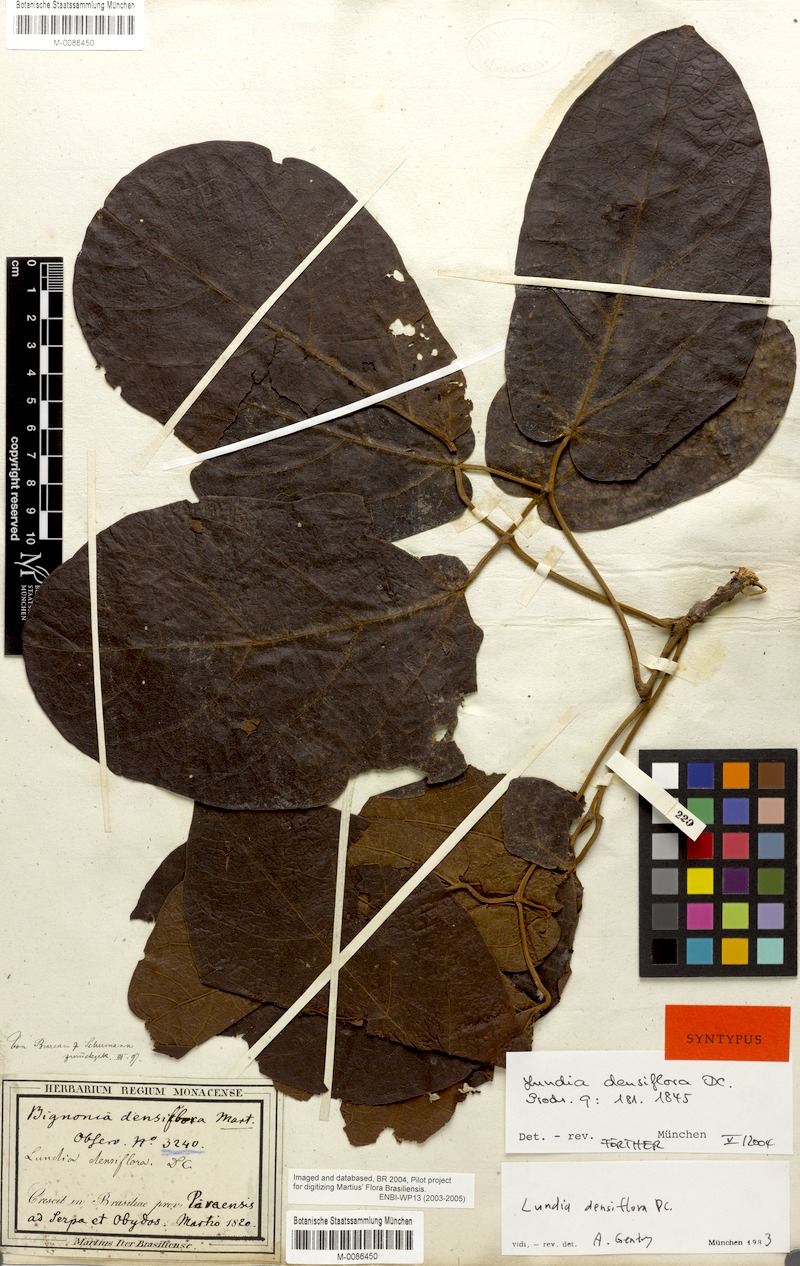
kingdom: Plantae
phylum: Tracheophyta
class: Magnoliopsida
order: Lamiales
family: Bignoniaceae
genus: Lundia
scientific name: Lundia densiflora
